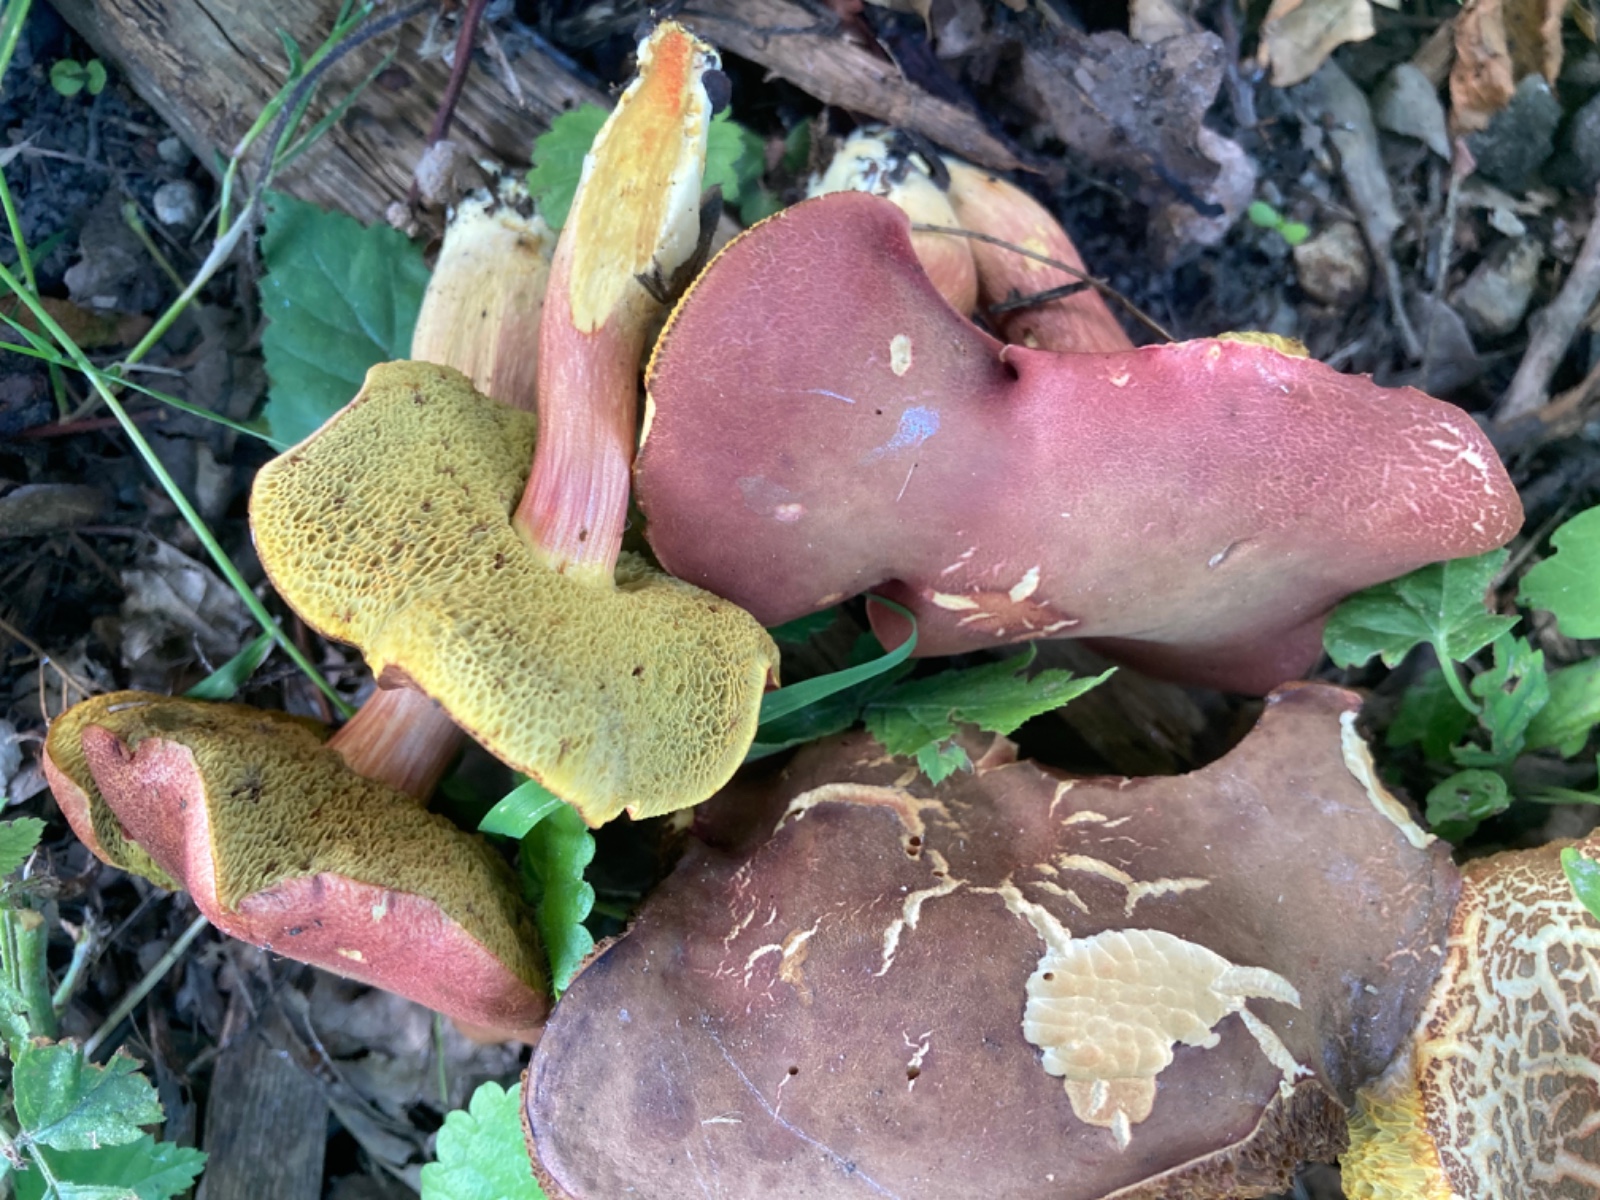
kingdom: Fungi
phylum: Basidiomycota
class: Agaricomycetes
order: Boletales
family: Boletaceae
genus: Hortiboletus
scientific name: Hortiboletus rubellus
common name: blodrød rørhat
